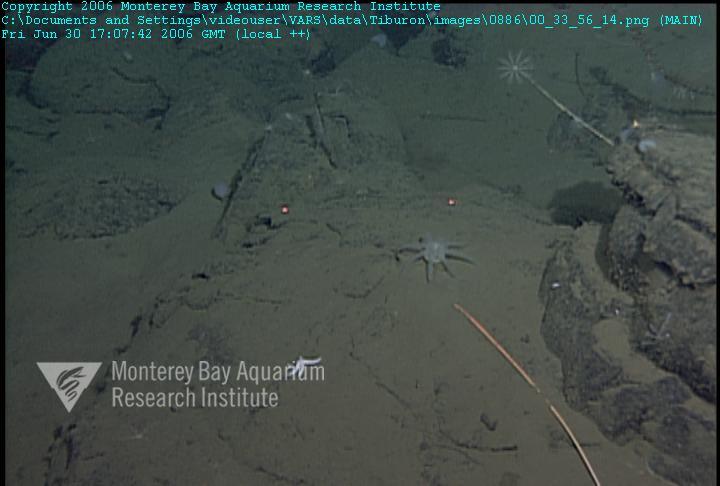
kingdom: Animalia
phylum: Porifera
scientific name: Porifera
